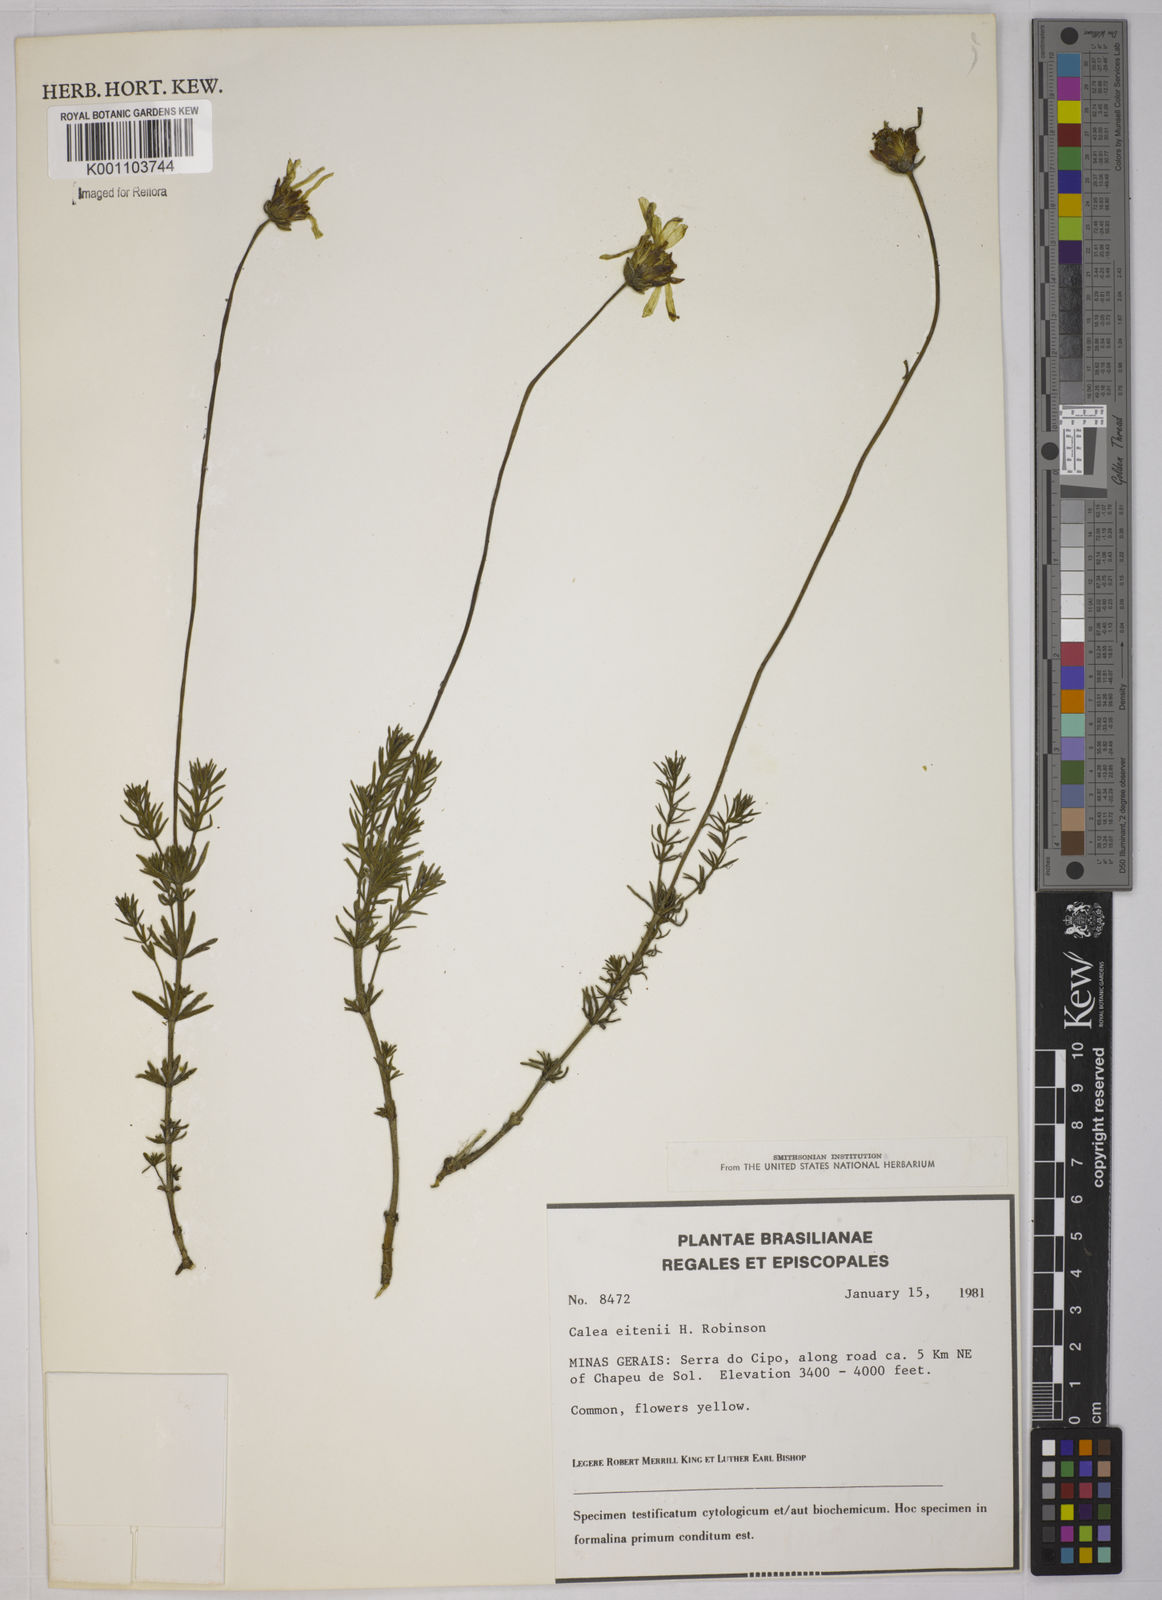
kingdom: Plantae
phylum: Tracheophyta
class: Magnoliopsida
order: Asterales
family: Asteraceae
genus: Calea
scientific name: Calea tridactylita
